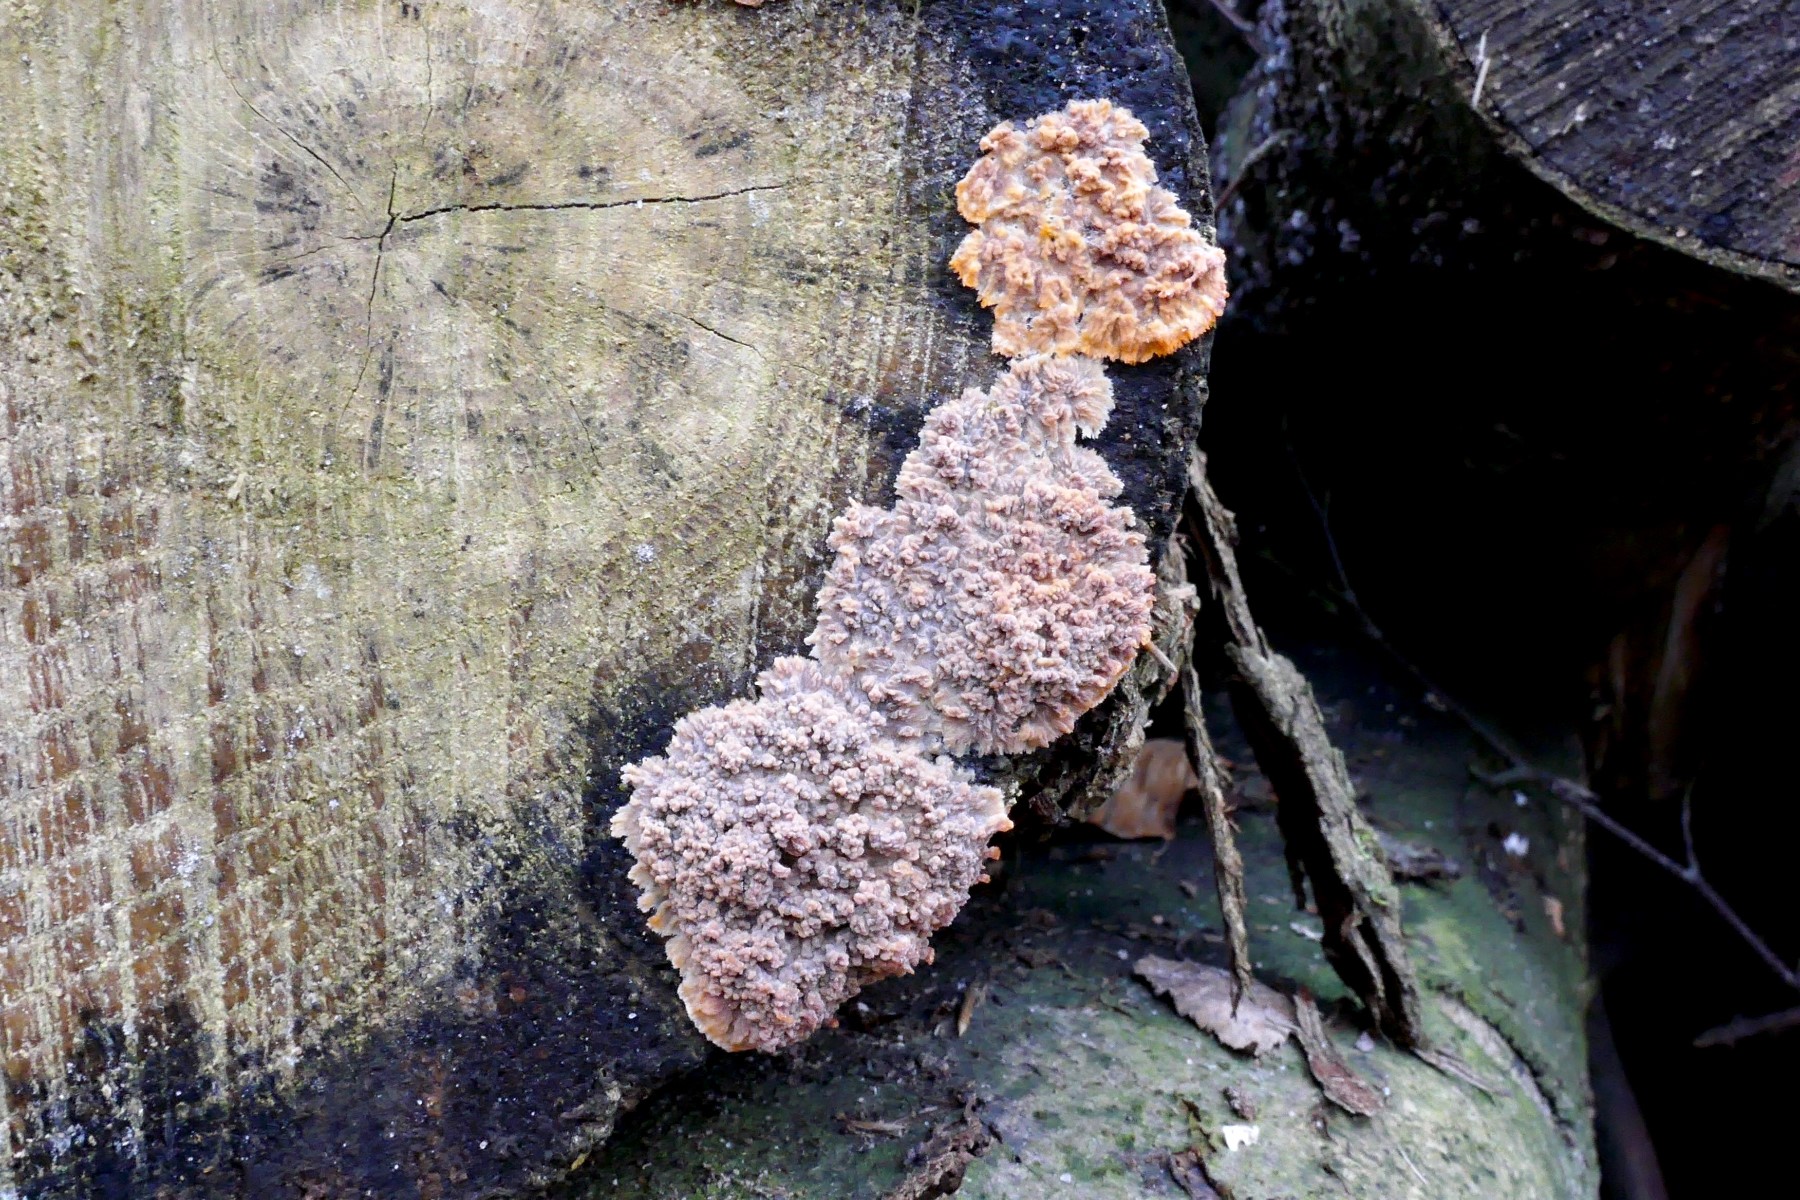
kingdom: Fungi
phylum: Basidiomycota
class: Agaricomycetes
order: Polyporales
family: Meruliaceae
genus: Phlebia
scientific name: Phlebia radiata
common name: stråle-åresvamp
